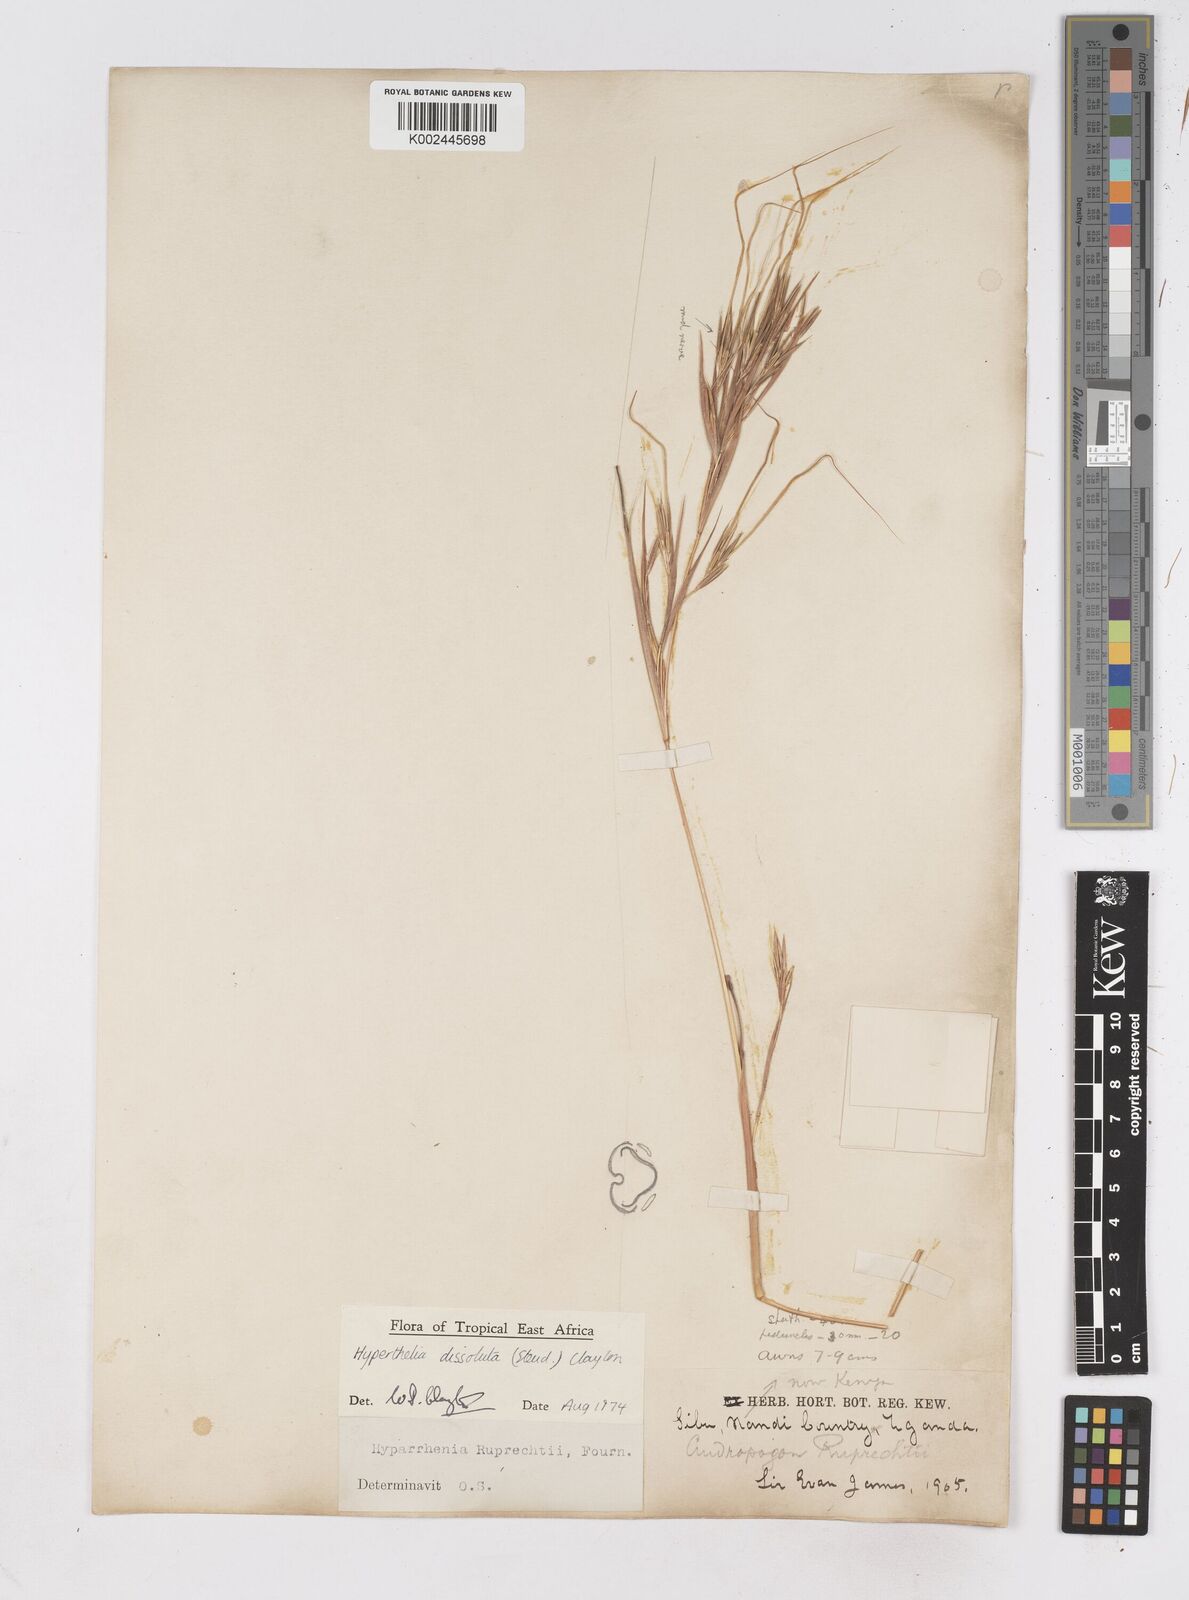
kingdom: Plantae
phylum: Tracheophyta
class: Liliopsida
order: Poales
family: Poaceae
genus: Hyperthelia
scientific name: Hyperthelia dissoluta
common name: Yellow thatching grass
